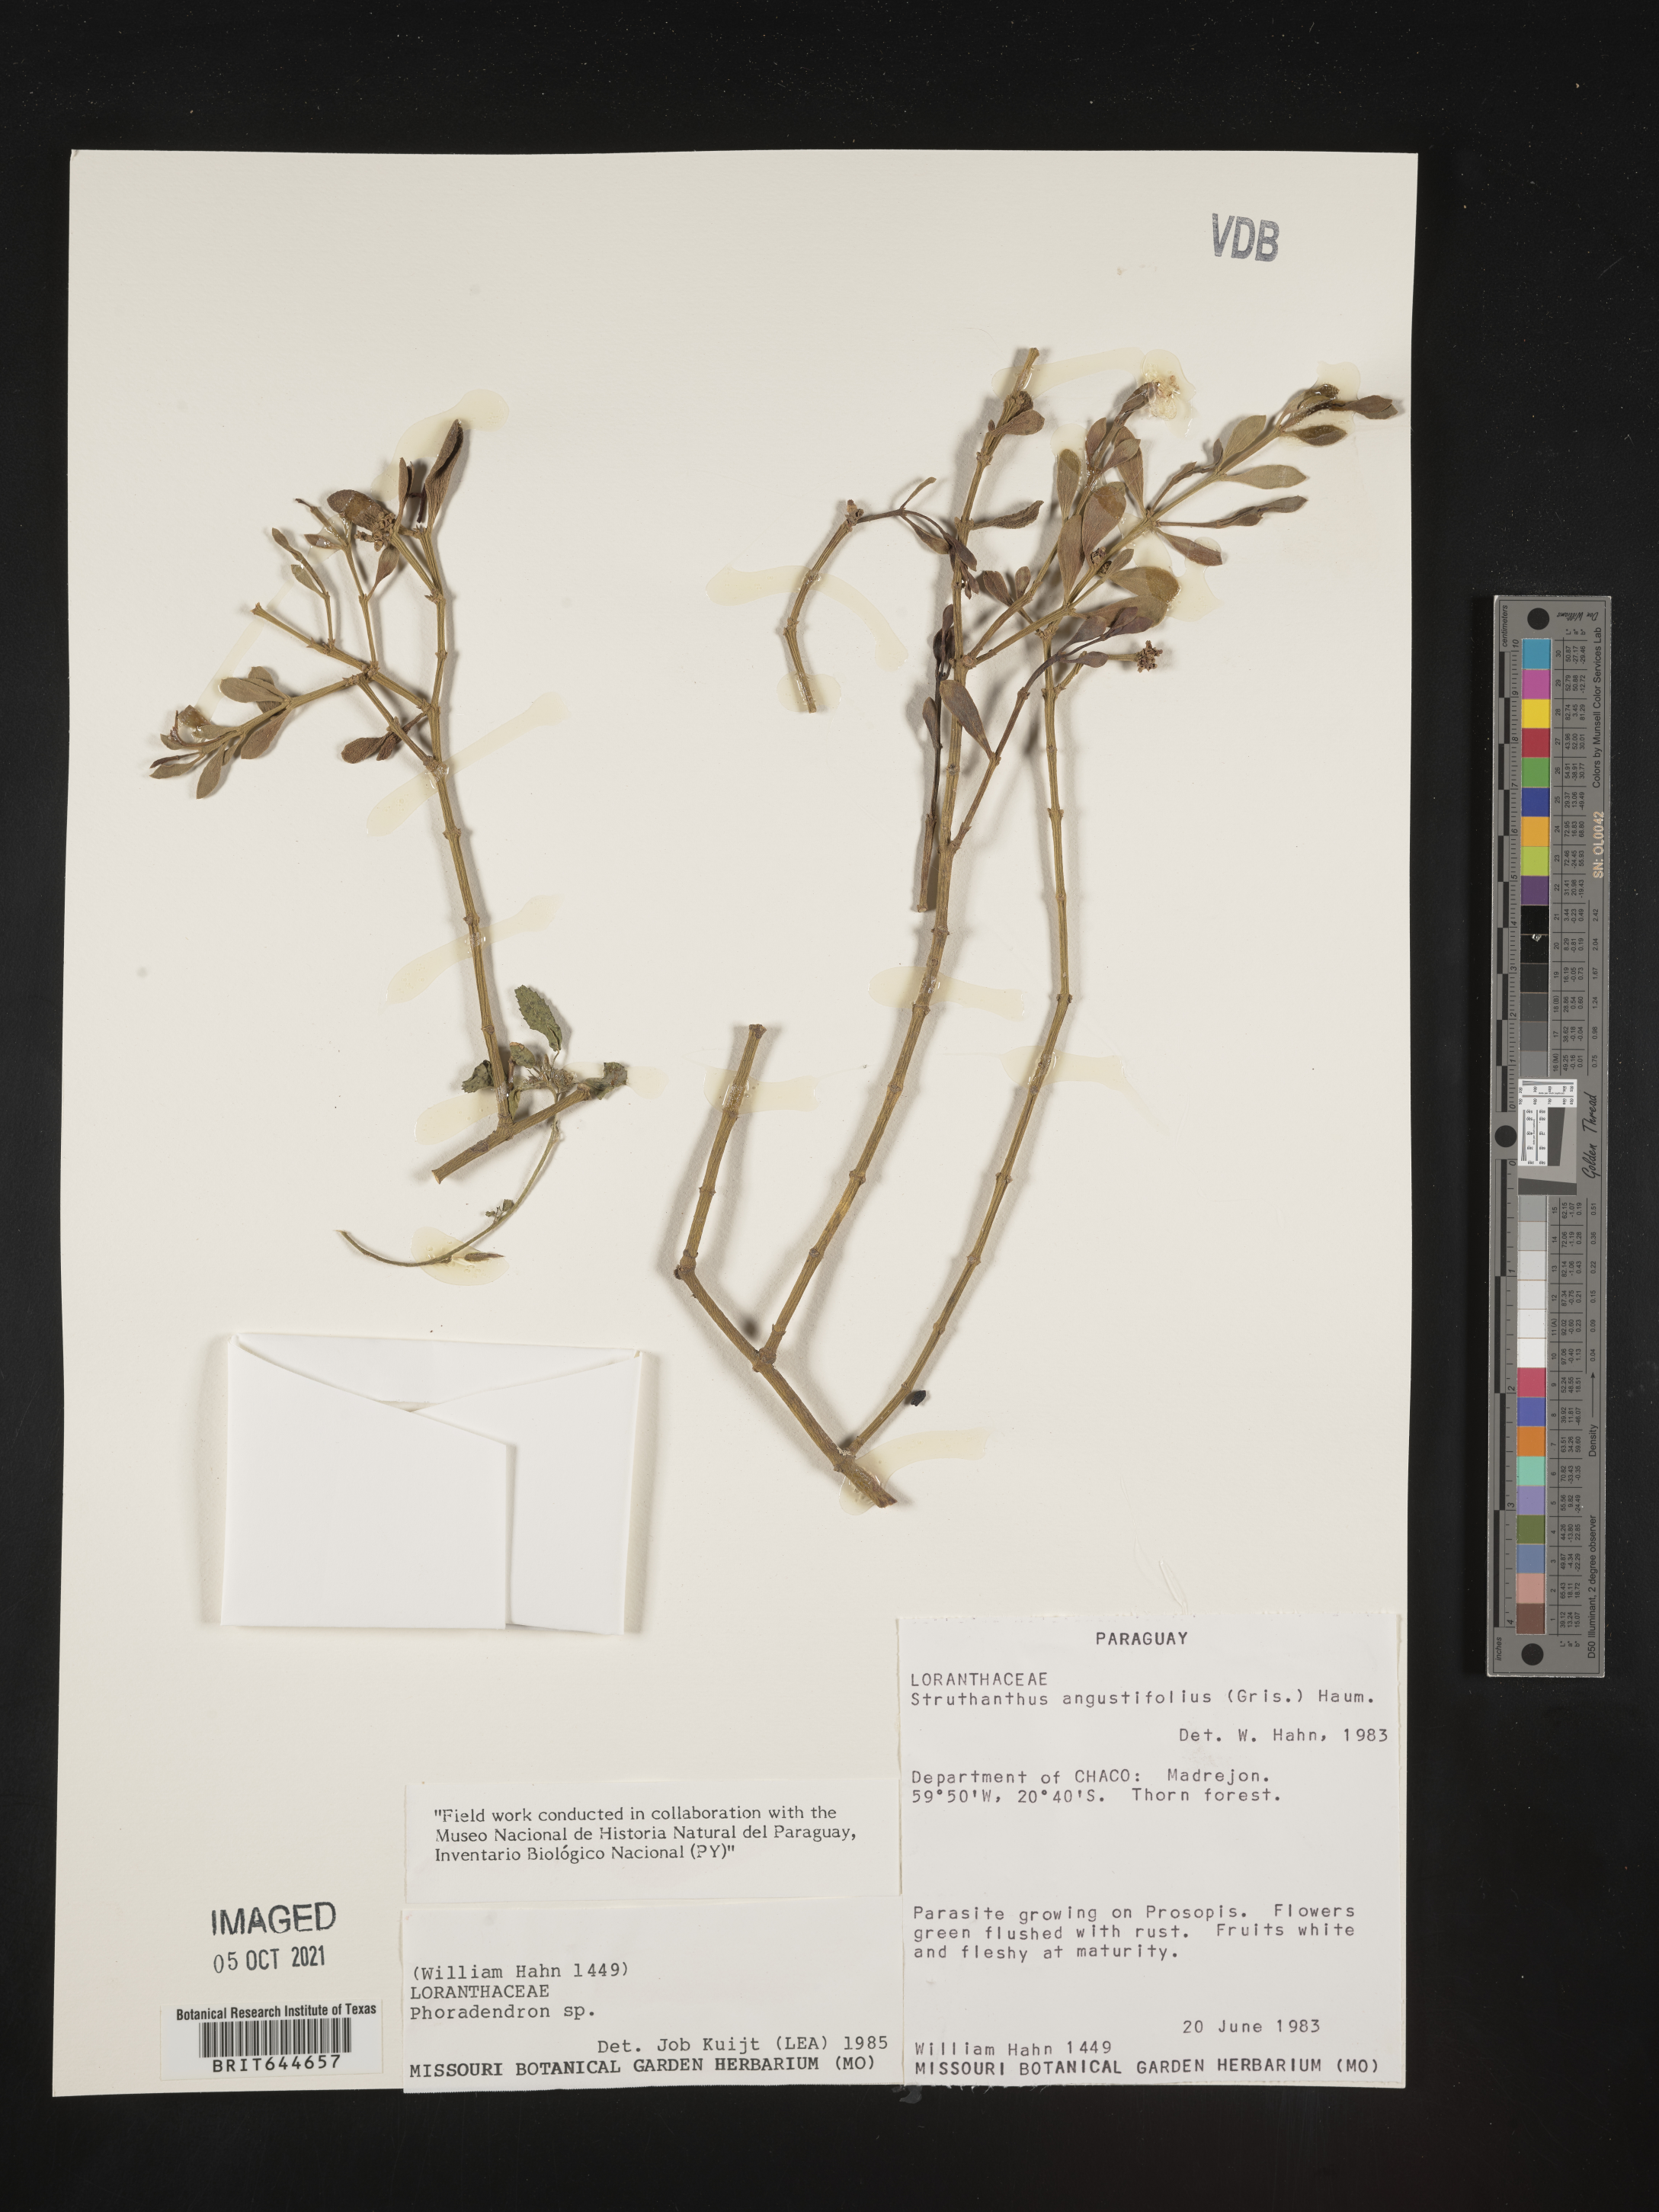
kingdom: Plantae
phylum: Tracheophyta
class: Magnoliopsida
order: Santalales
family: Viscaceae
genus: Phoradendron
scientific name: Phoradendron
